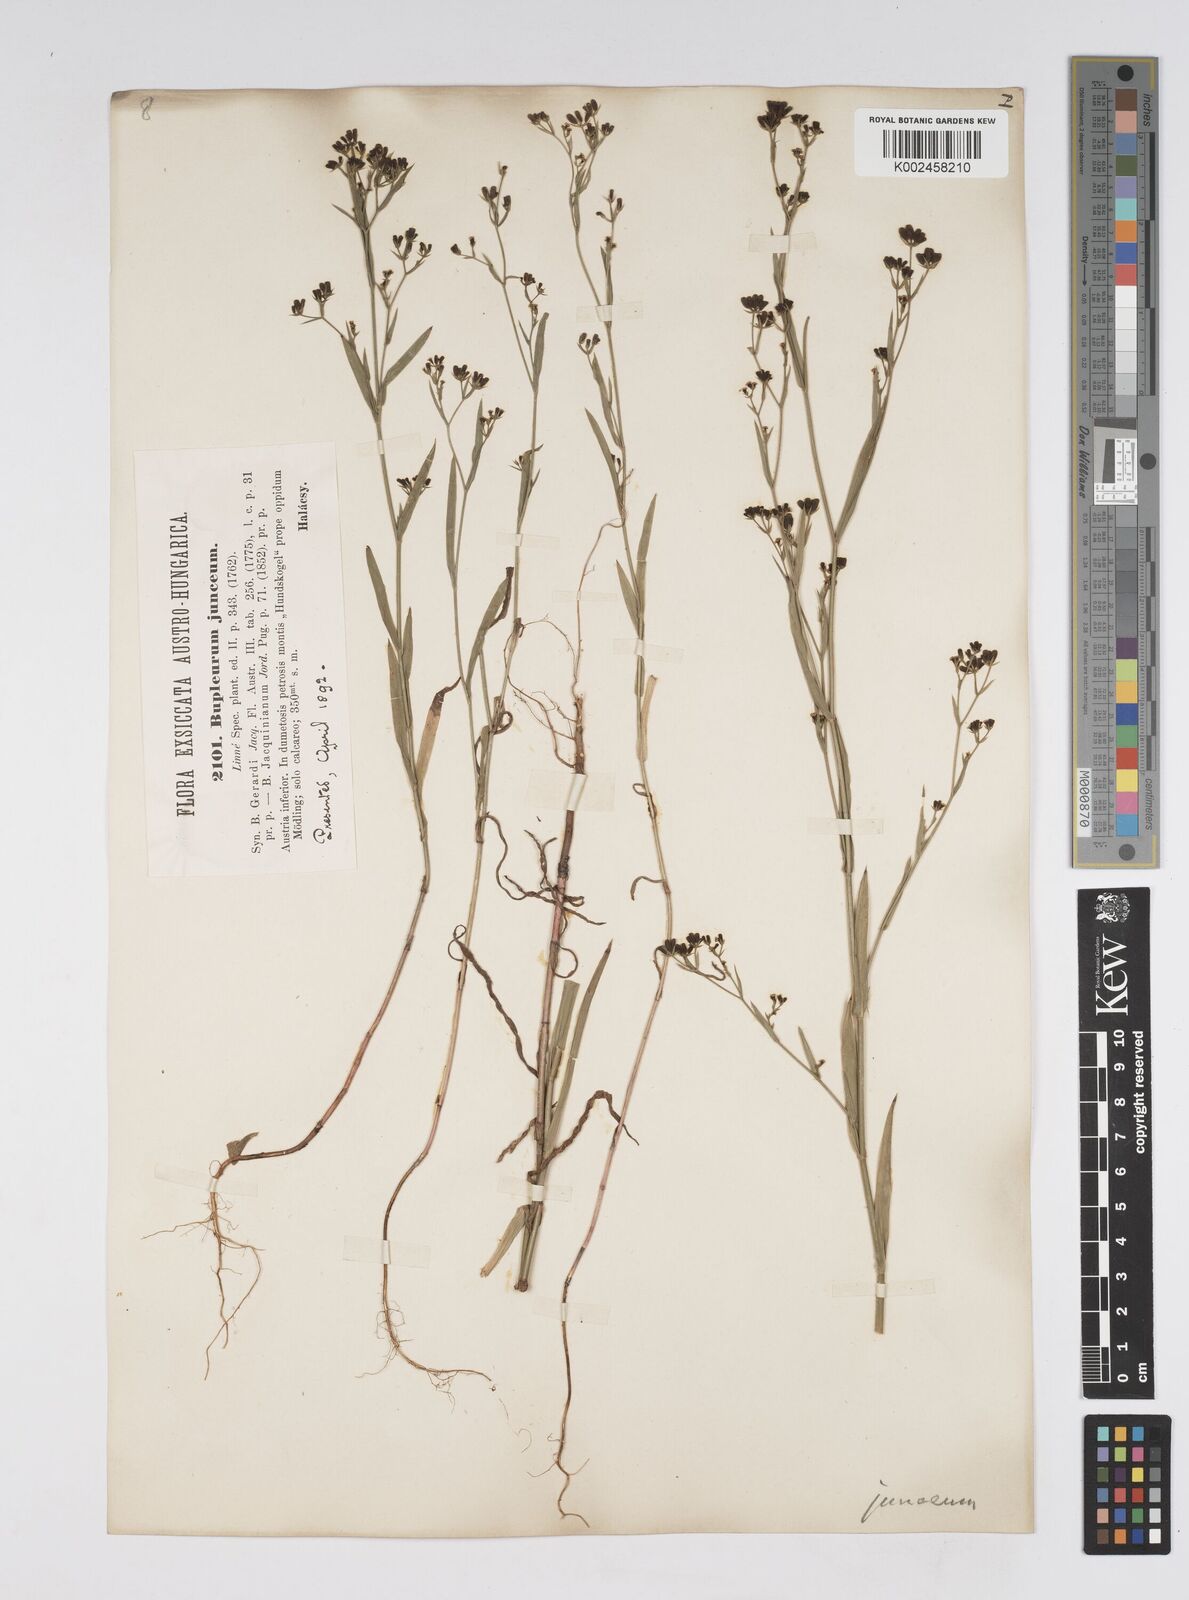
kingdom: Plantae
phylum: Tracheophyta
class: Magnoliopsida
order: Apiales
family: Apiaceae
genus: Bupleurum
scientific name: Bupleurum praealtum
